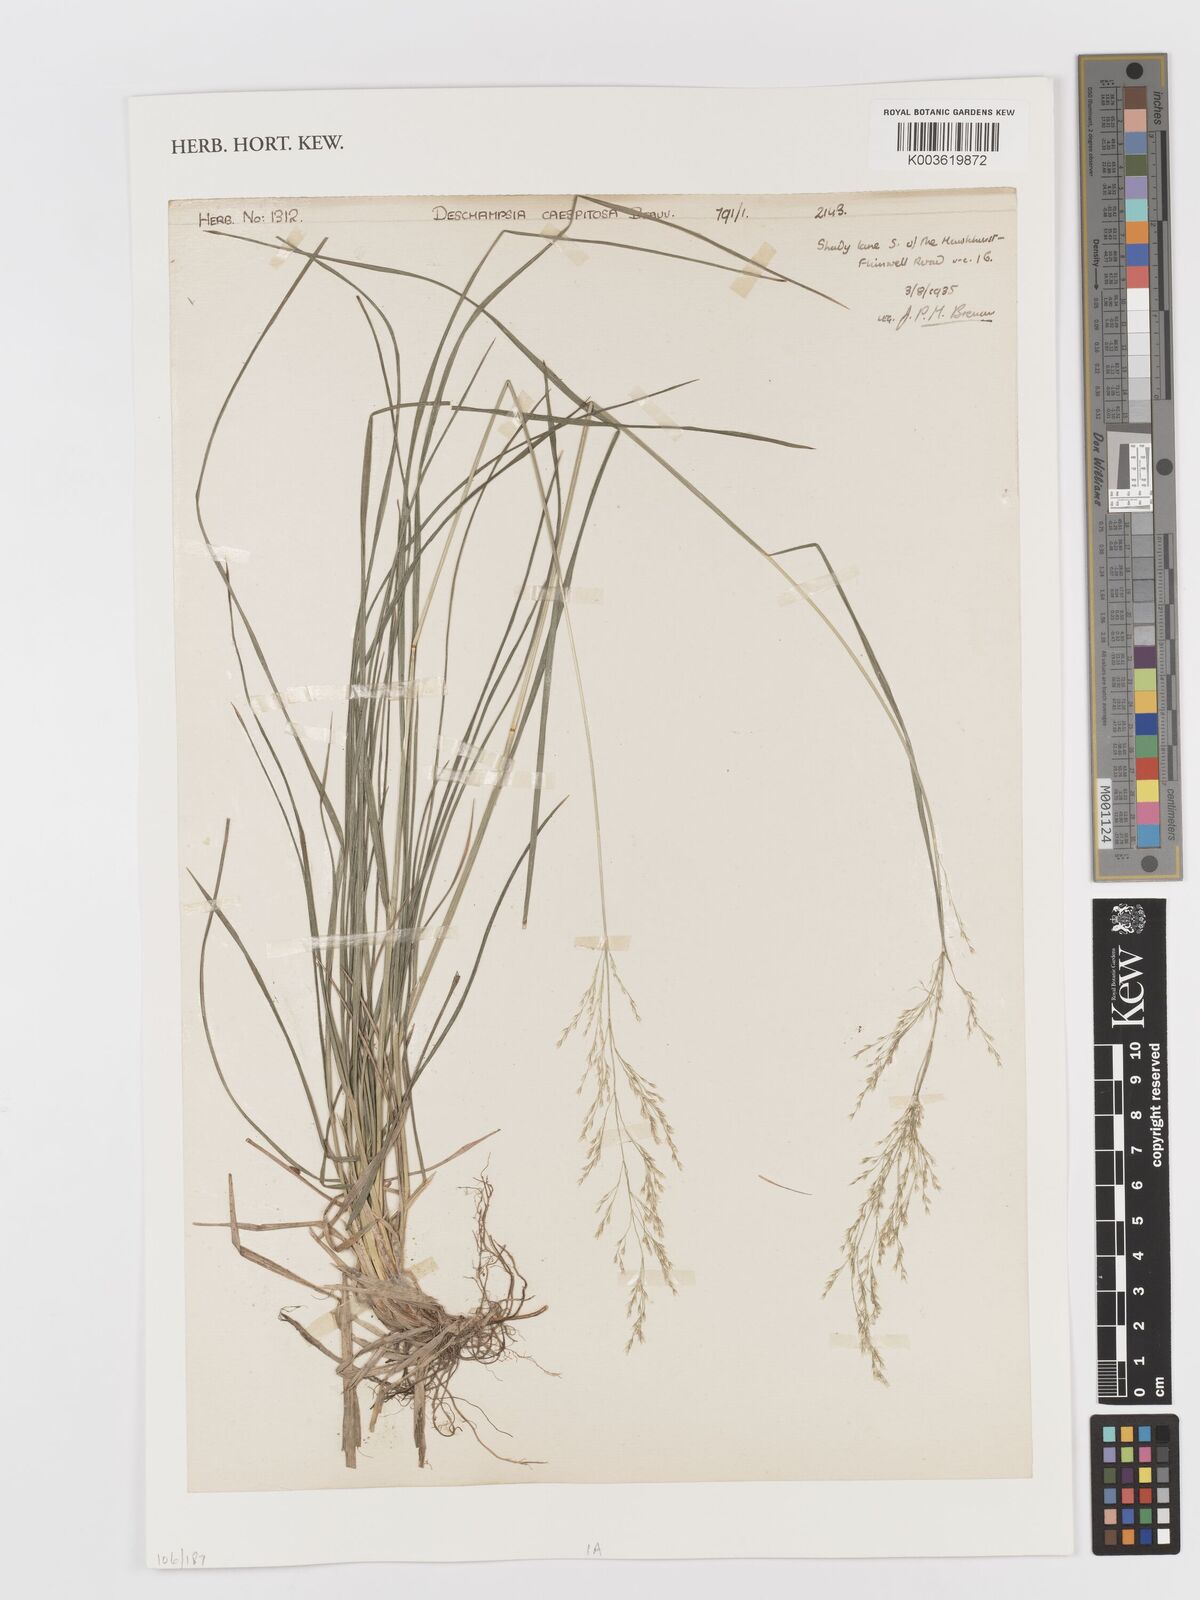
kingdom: Plantae
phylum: Tracheophyta
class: Liliopsida
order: Poales
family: Poaceae
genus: Deschampsia
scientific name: Deschampsia cespitosa
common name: Tufted hair-grass
